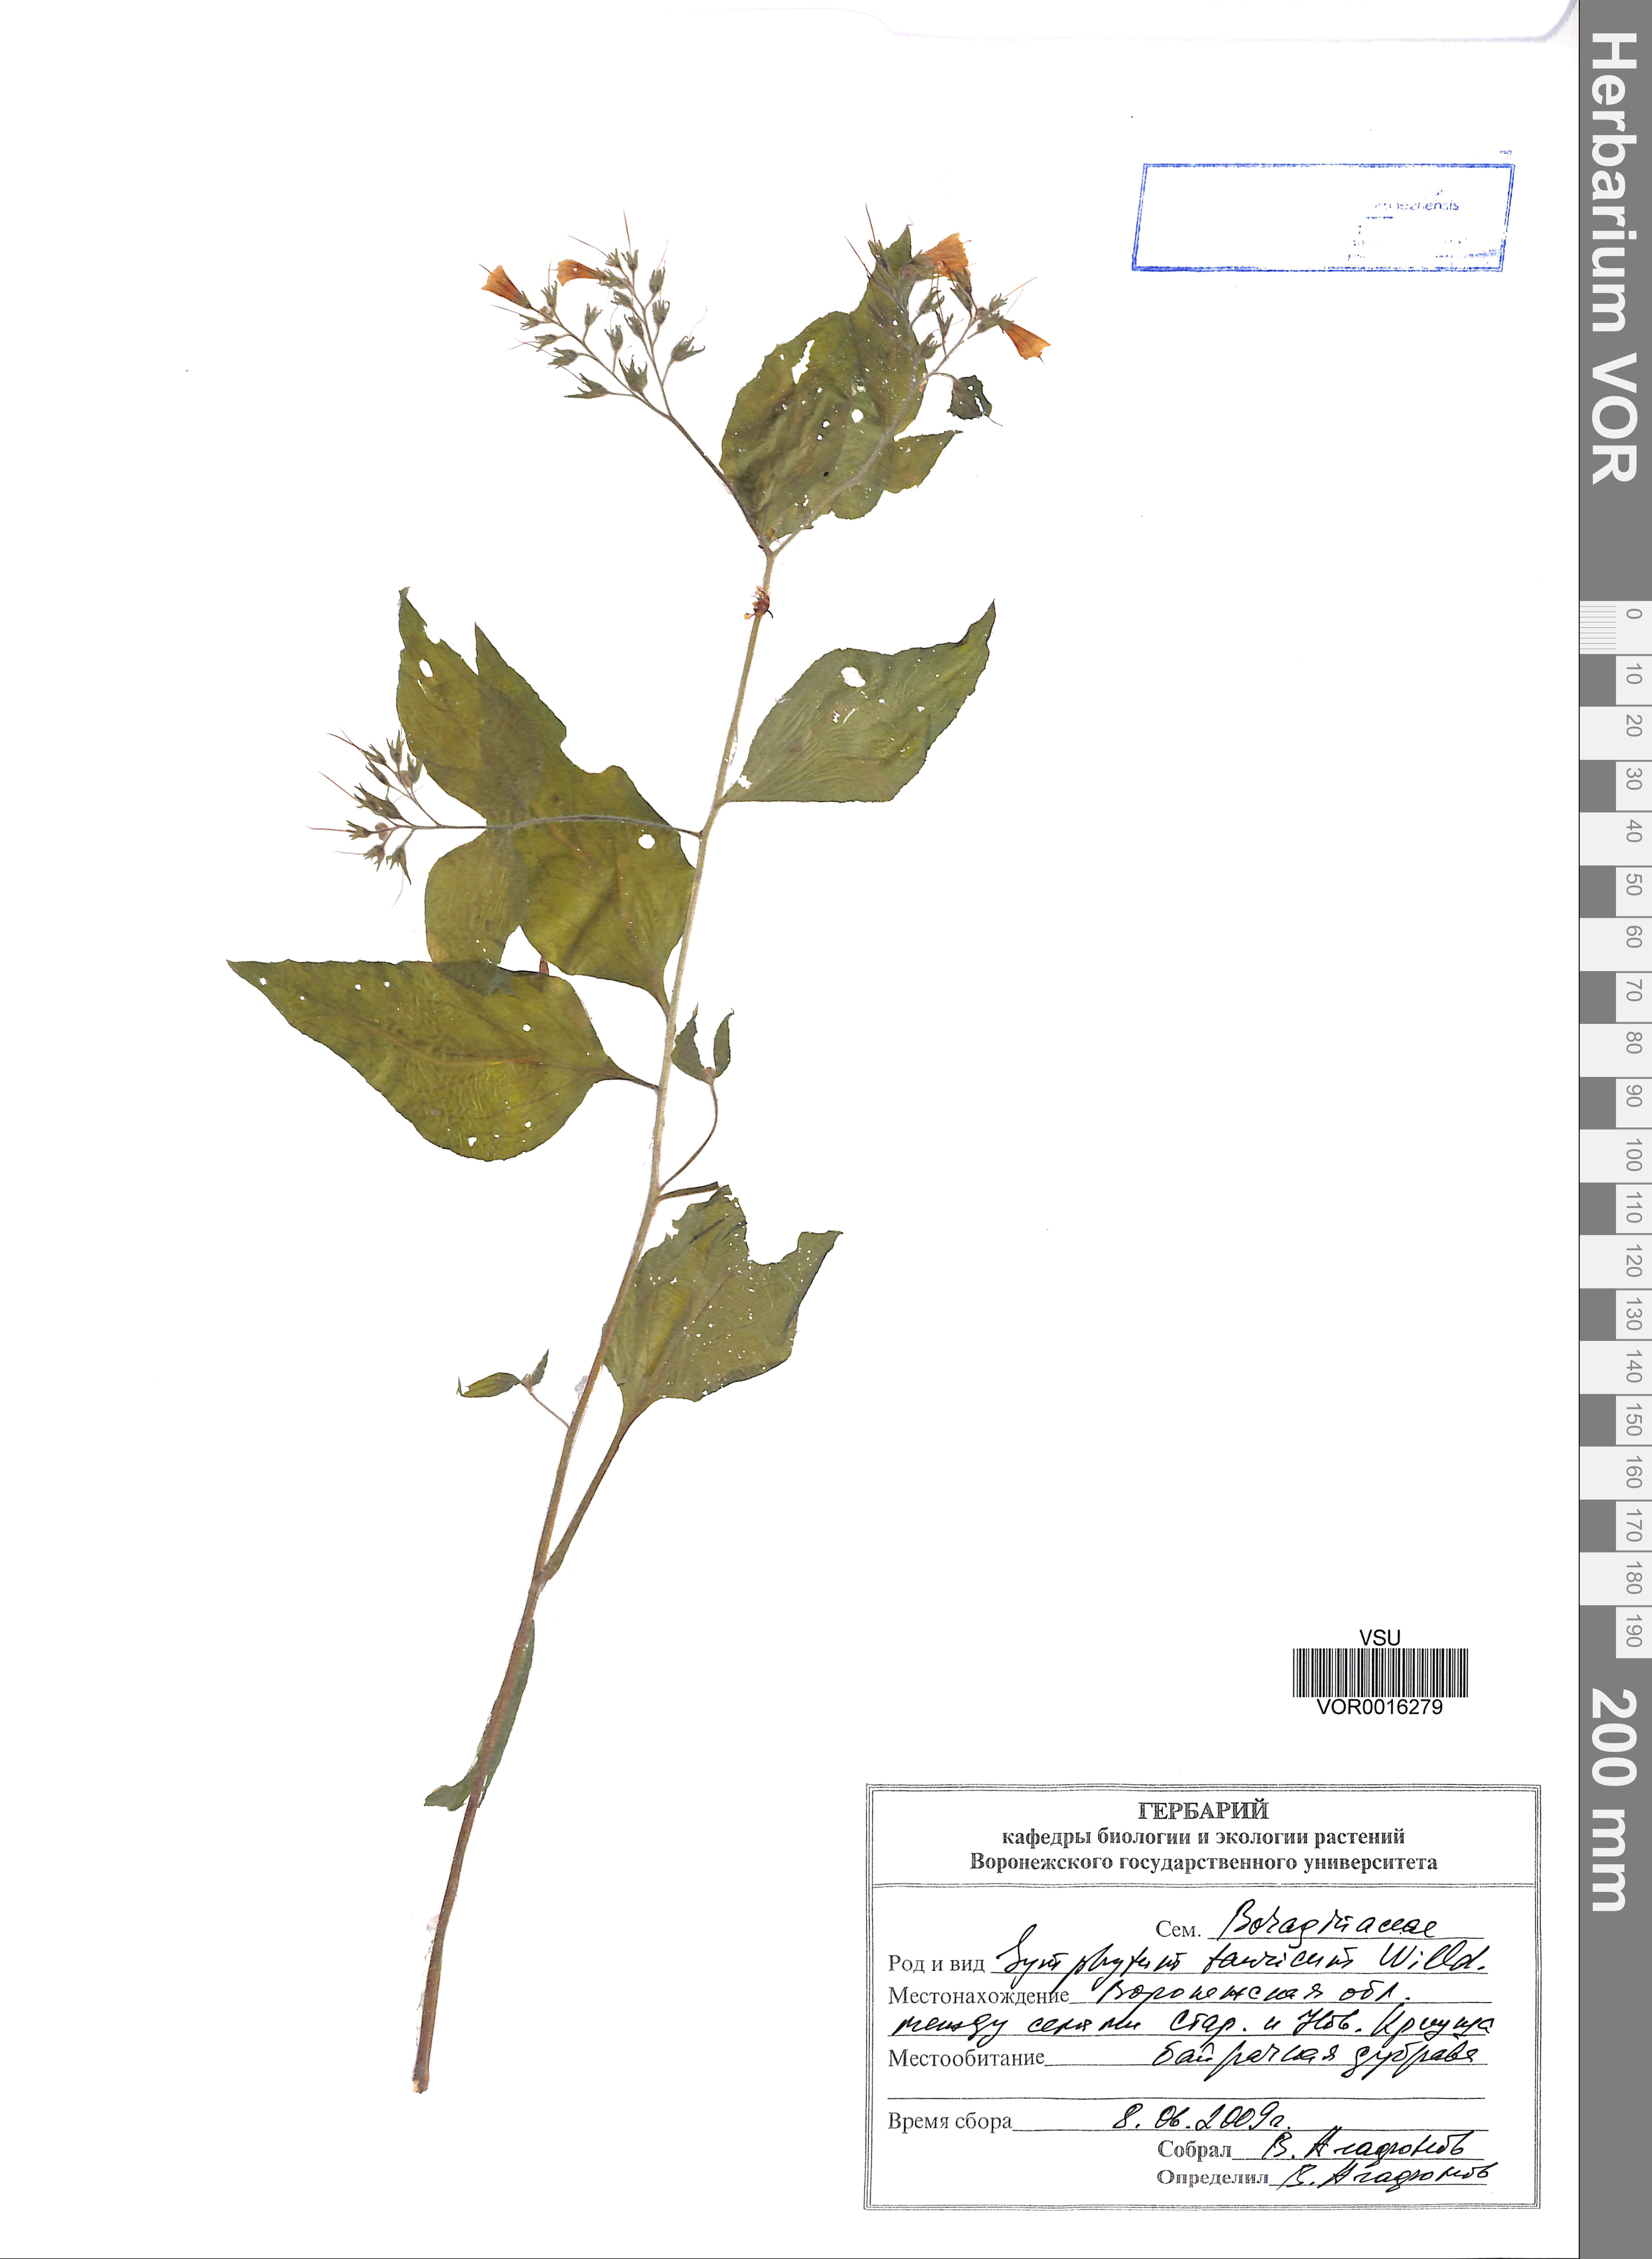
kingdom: Plantae
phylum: Tracheophyta
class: Magnoliopsida
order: Boraginales
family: Boraginaceae
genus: Symphytum
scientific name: Symphytum tauricum
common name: Crimean comfrey
